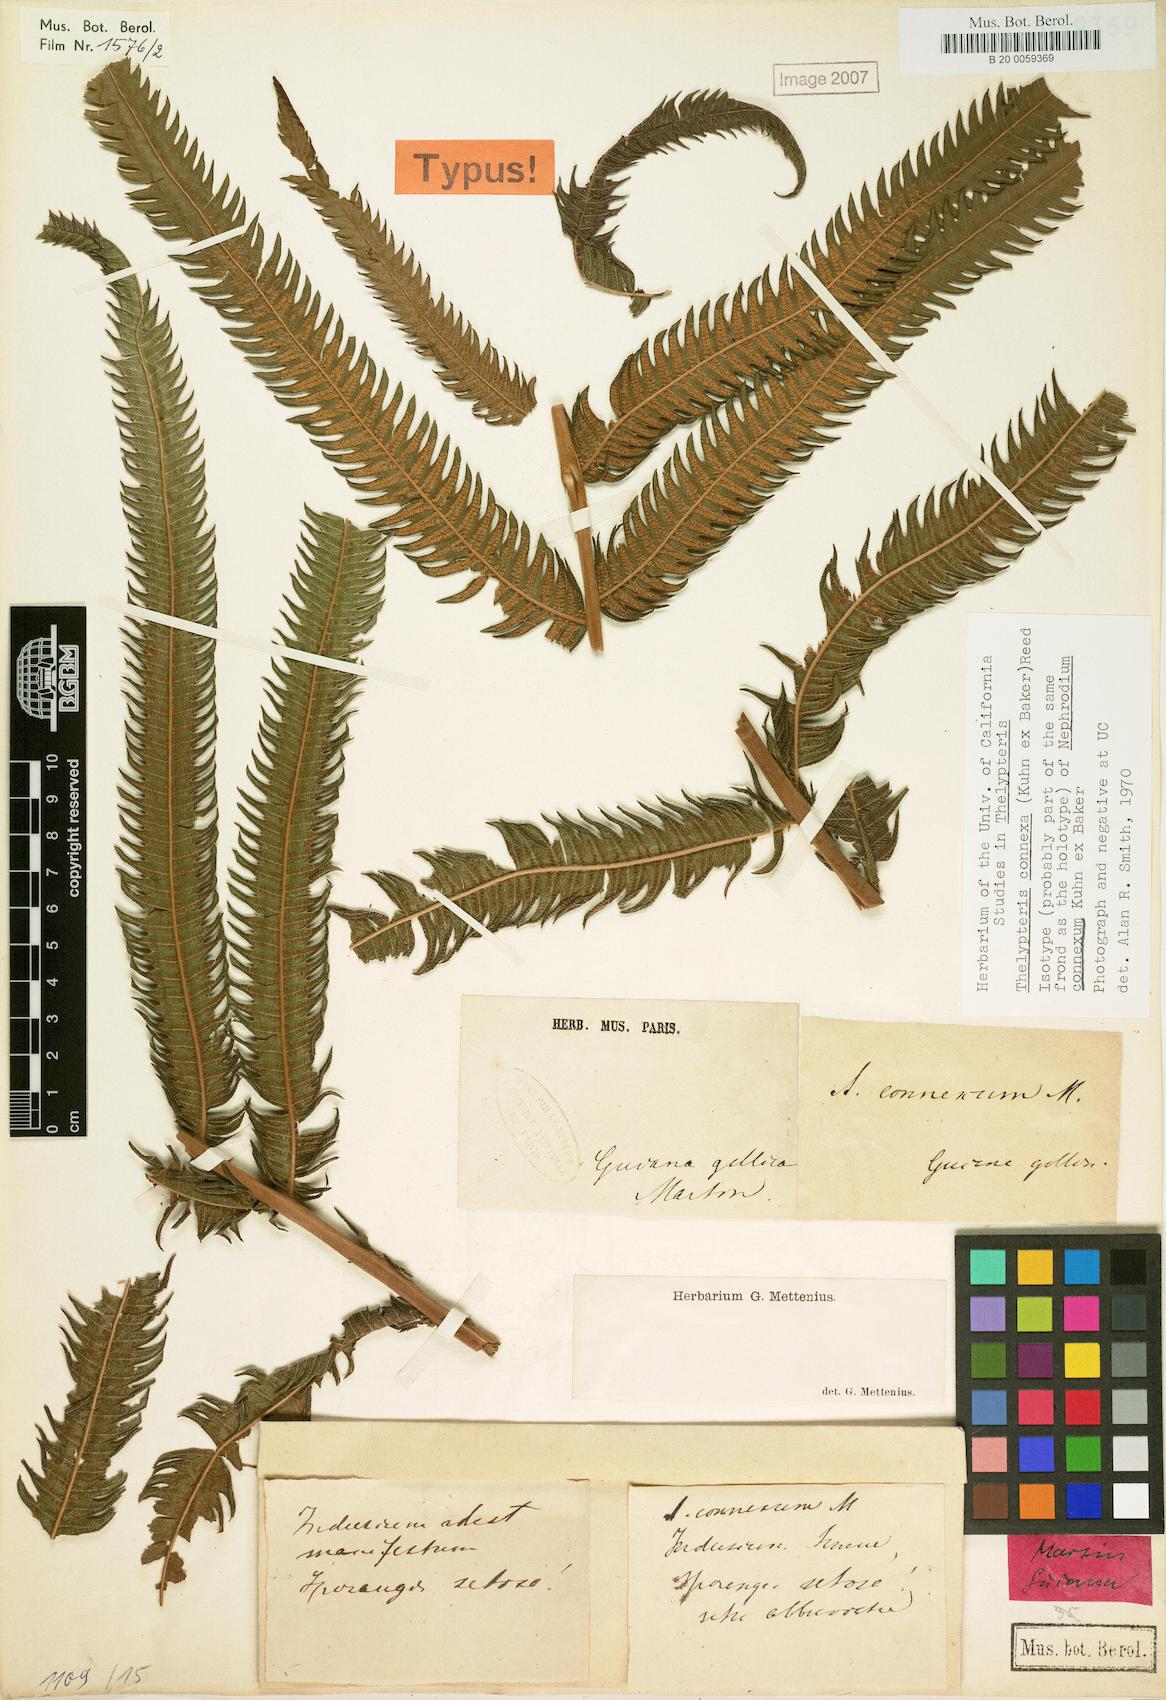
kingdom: Plantae
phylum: Tracheophyta
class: Polypodiopsida
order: Polypodiales
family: Thelypteridaceae
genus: Steiropteris
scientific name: Steiropteris connexa
